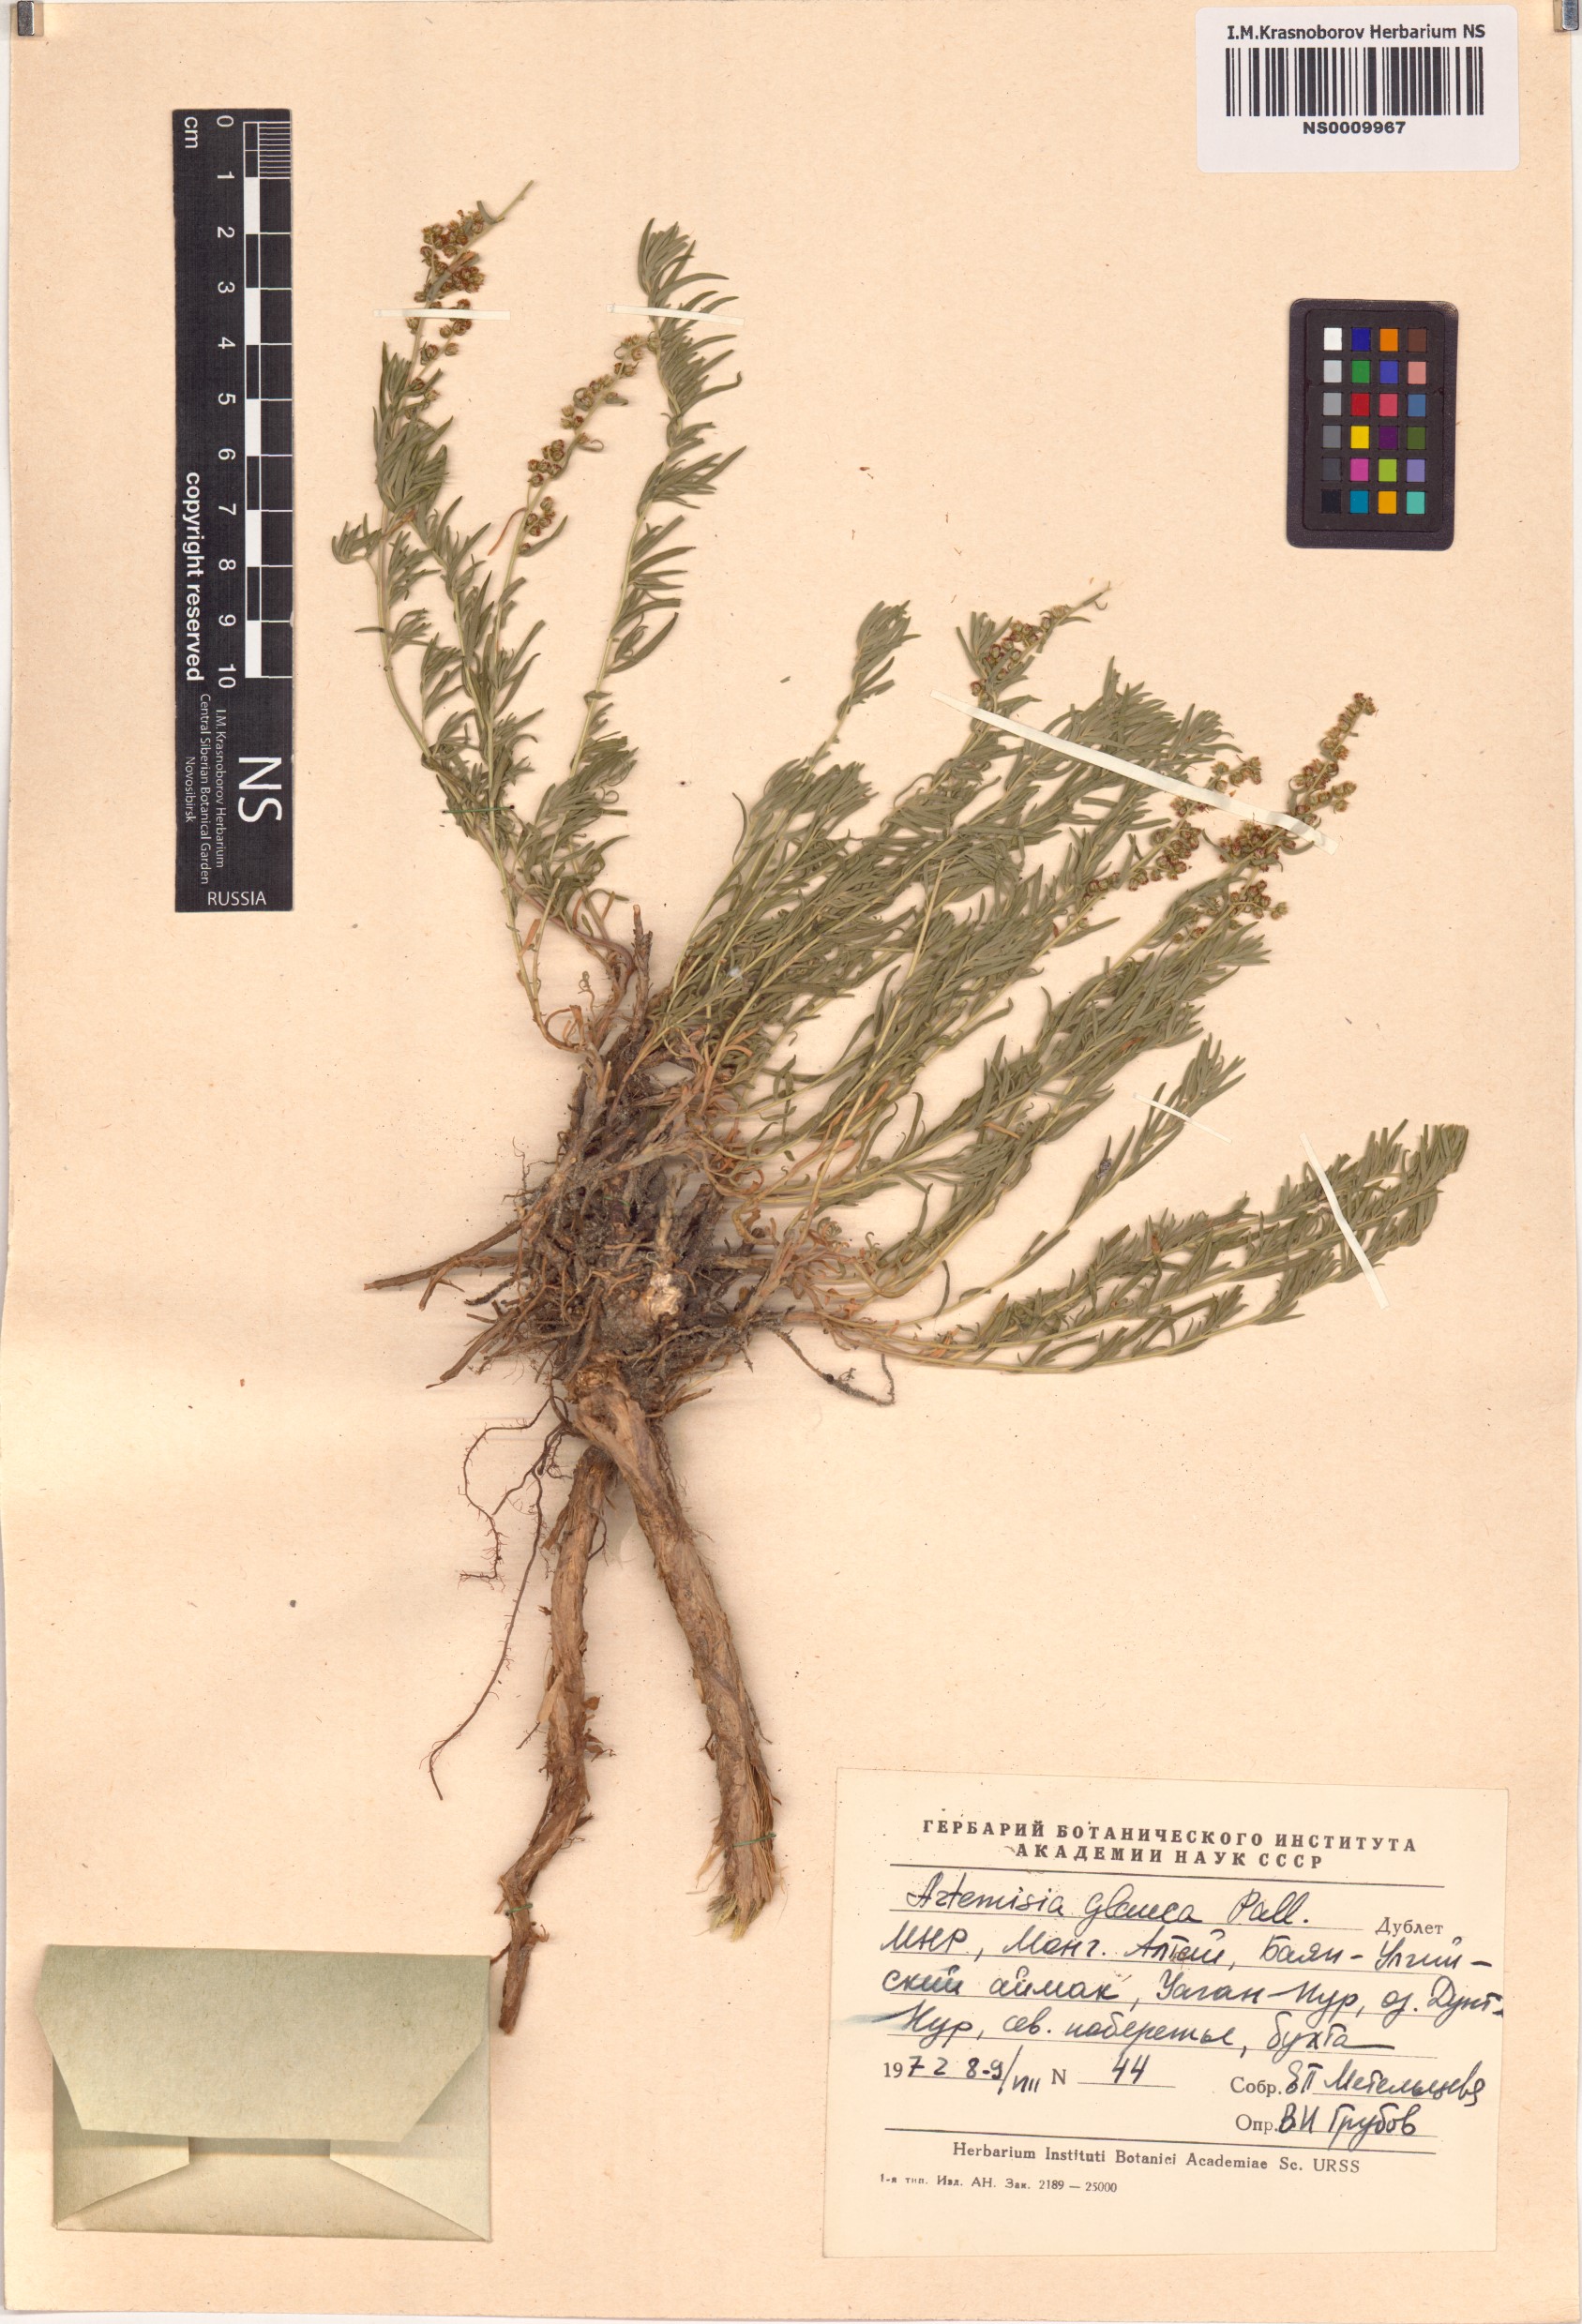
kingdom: Plantae
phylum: Tracheophyta
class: Magnoliopsida
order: Asterales
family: Asteraceae
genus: Artemisia
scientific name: Artemisia glauca
